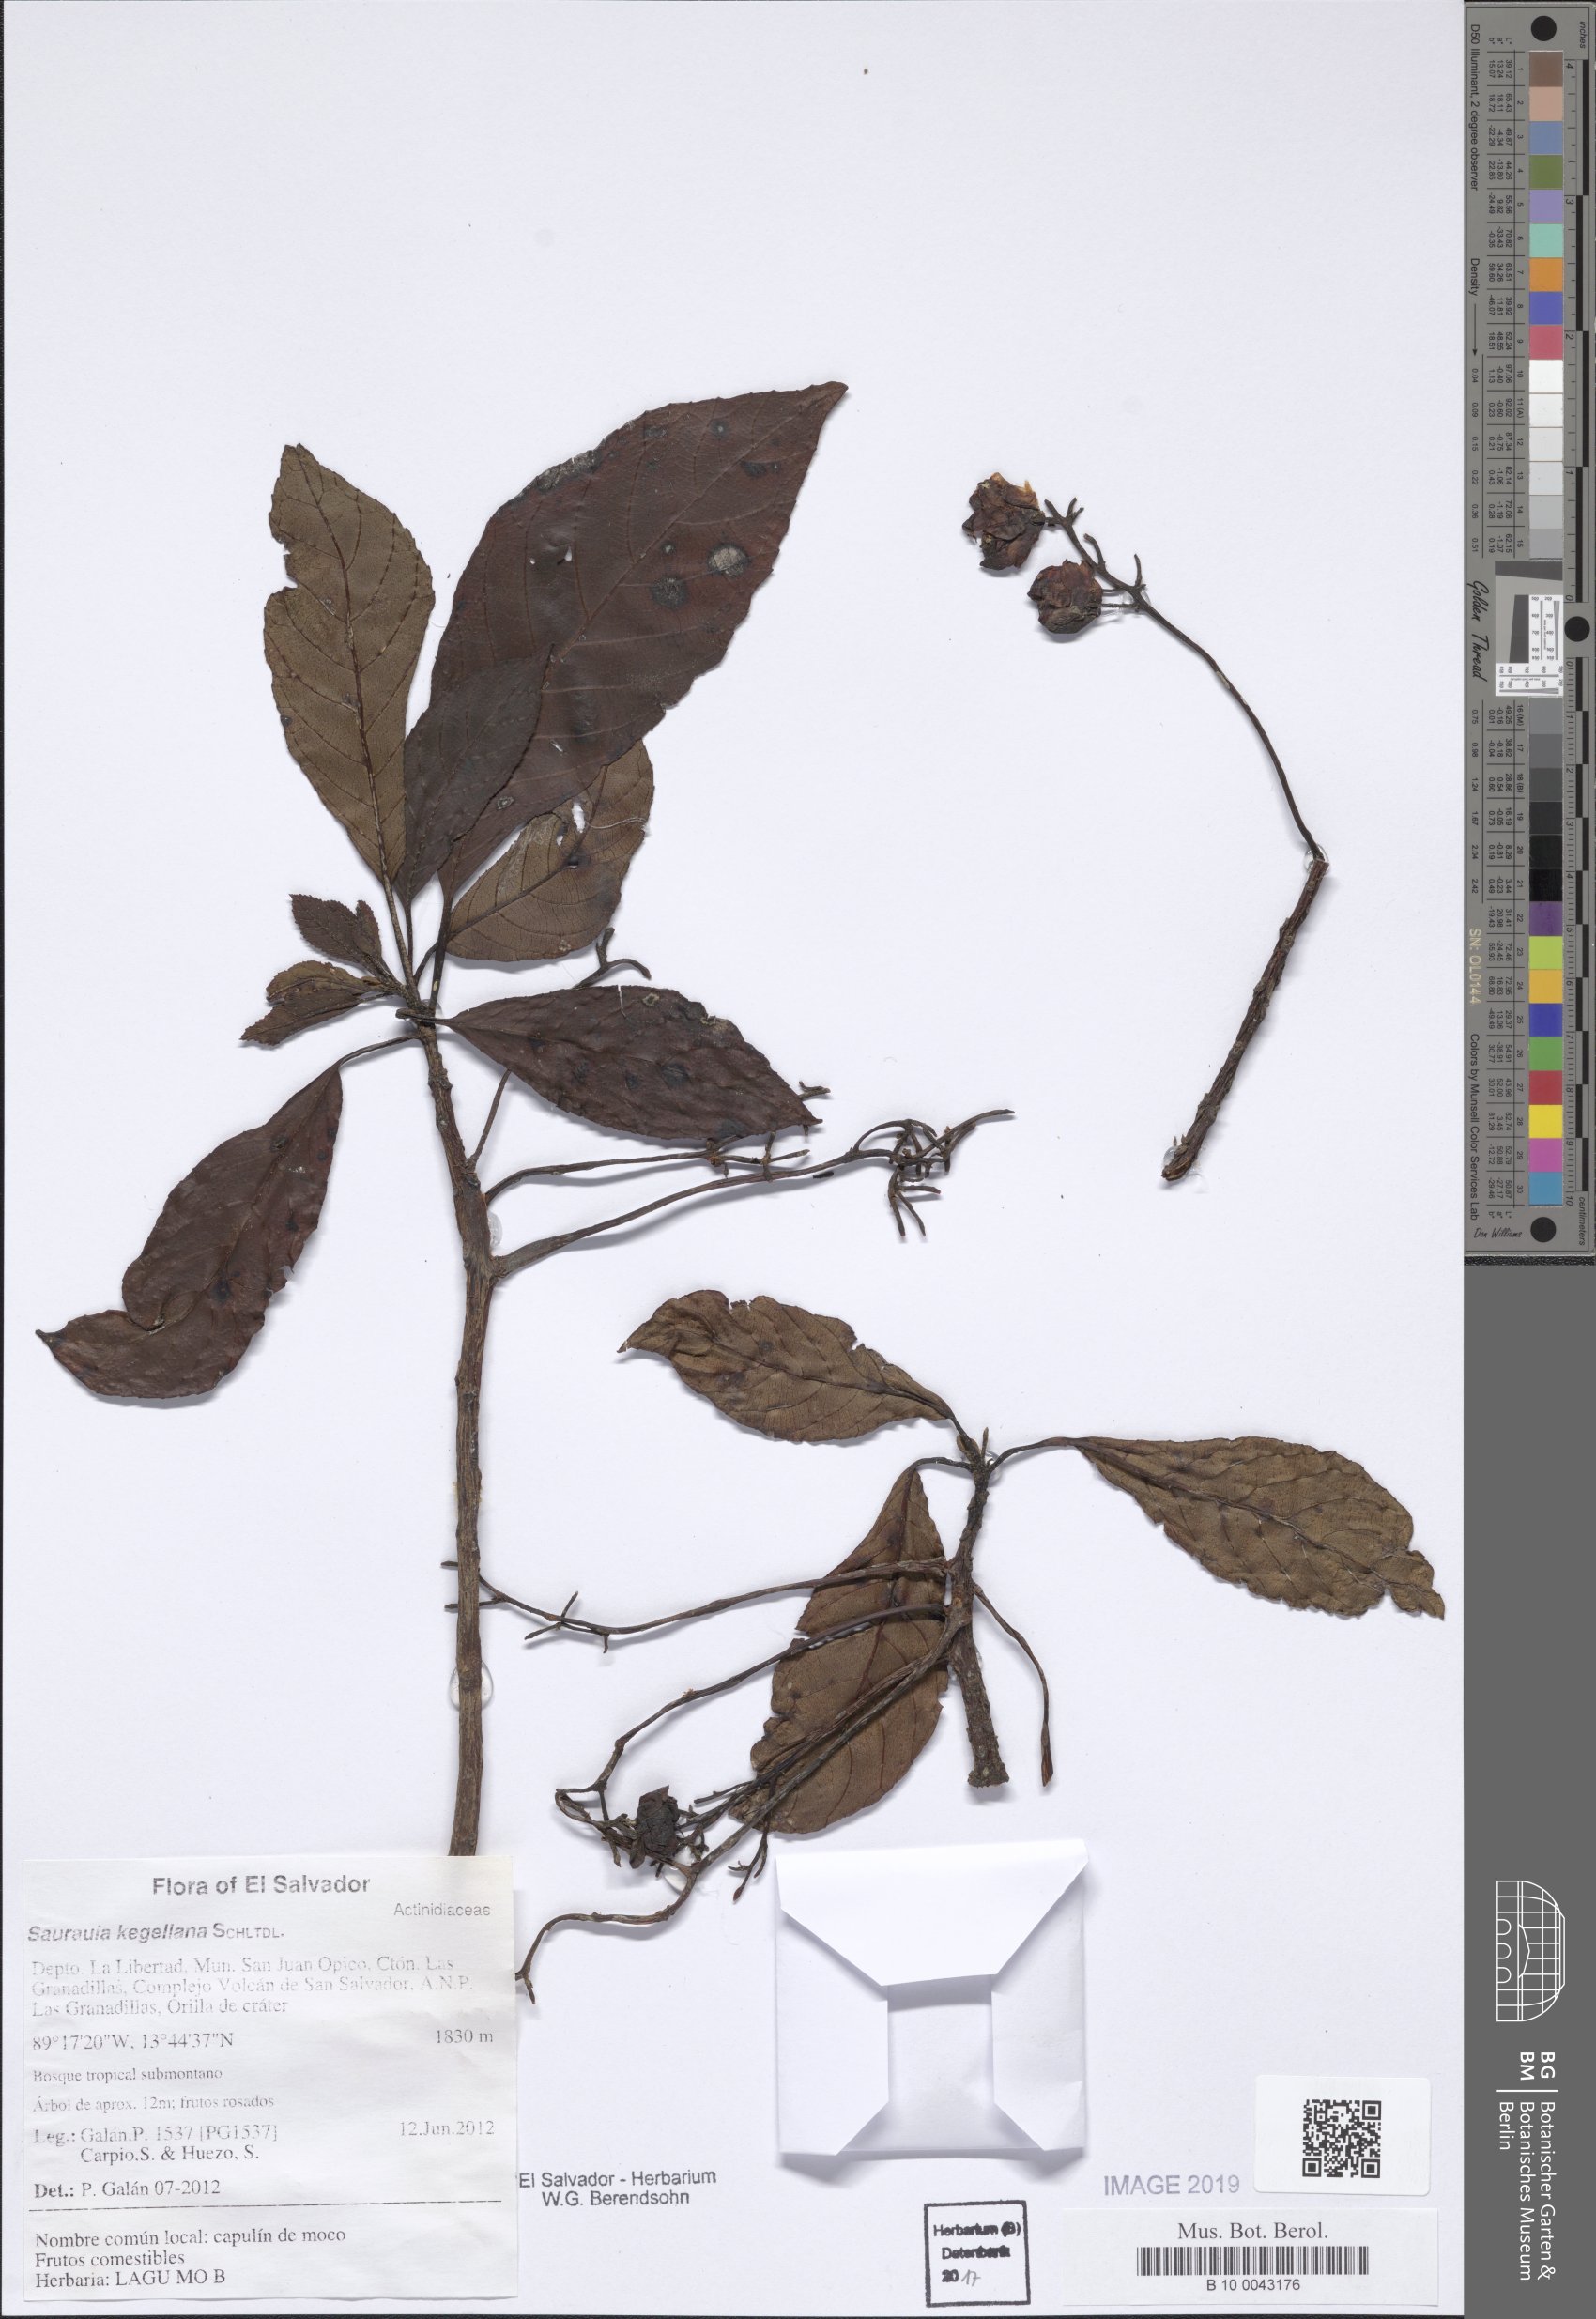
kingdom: Plantae
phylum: Tracheophyta
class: Magnoliopsida
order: Ericales
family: Actinidiaceae
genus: Saurauia
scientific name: Saurauia kegeliana
